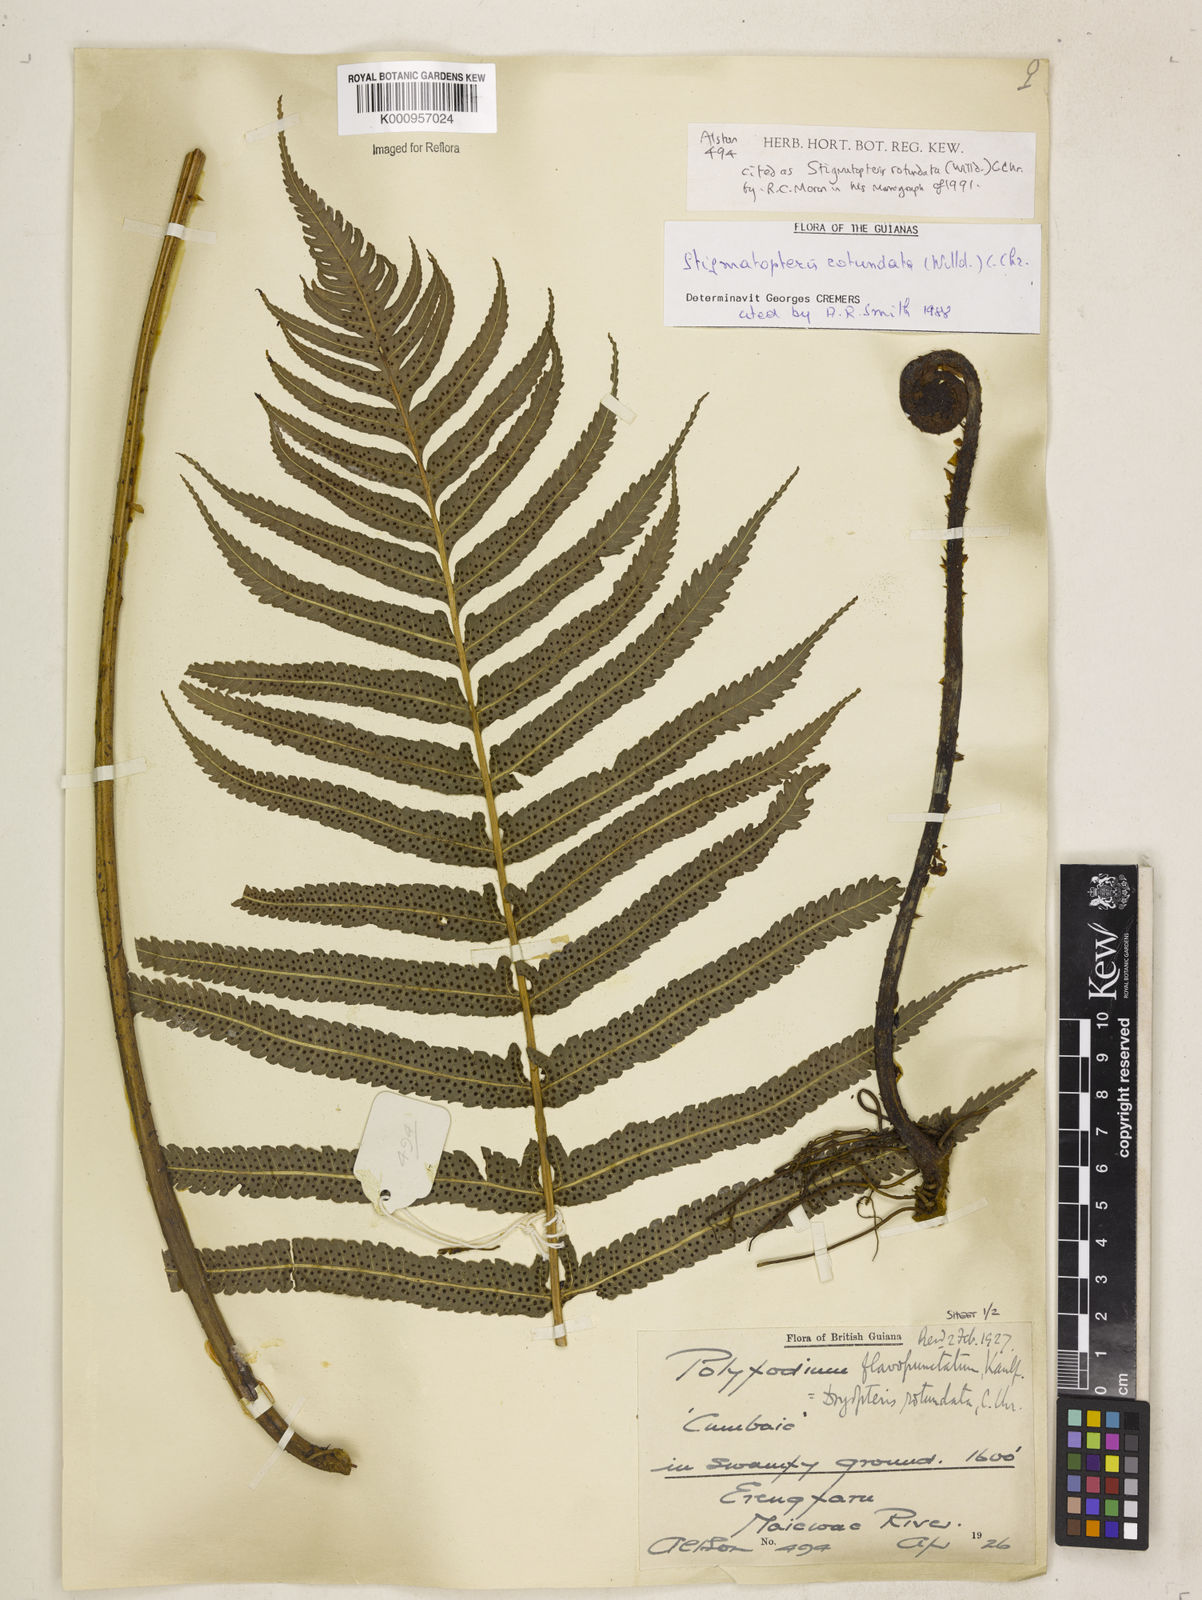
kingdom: Plantae
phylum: Tracheophyta
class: Polypodiopsida
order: Polypodiales
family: Dryopteridaceae
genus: Stigmatopteris
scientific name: Stigmatopteris rotundata
